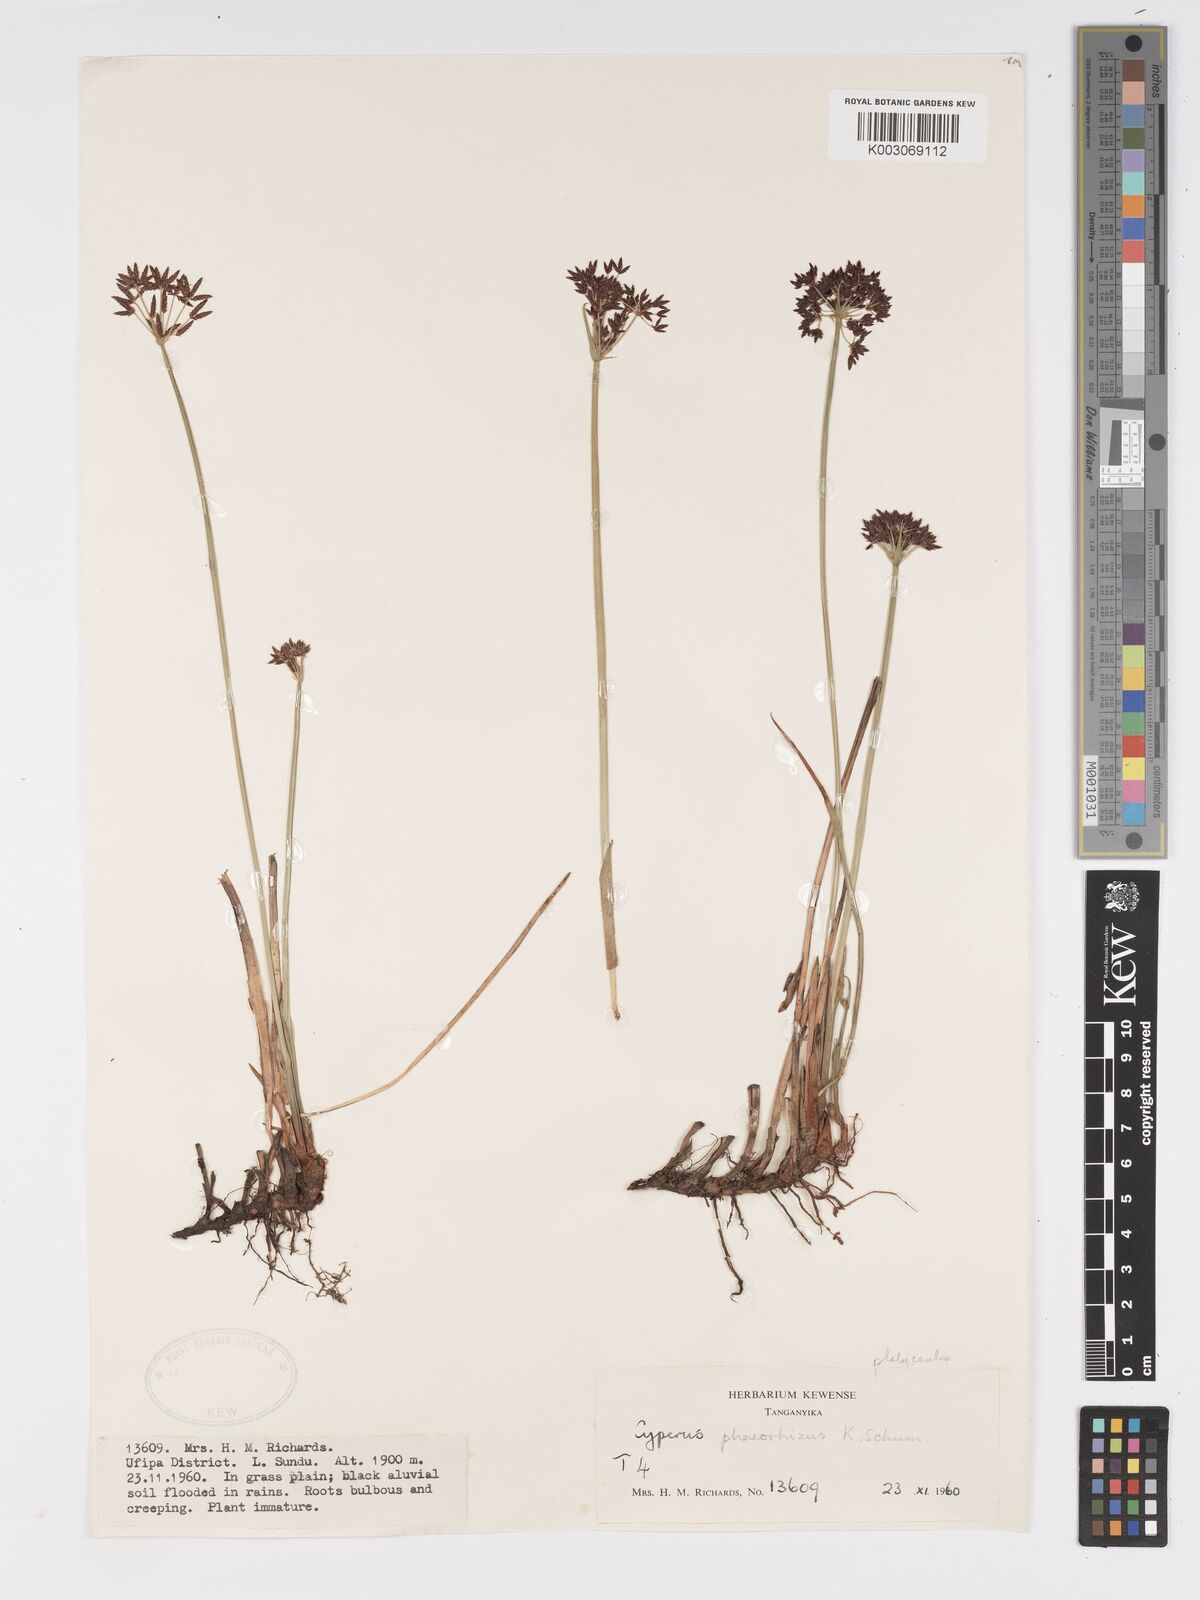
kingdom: Plantae
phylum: Tracheophyta
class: Liliopsida
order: Poales
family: Cyperaceae
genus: Cyperus
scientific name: Cyperus platycaulis
